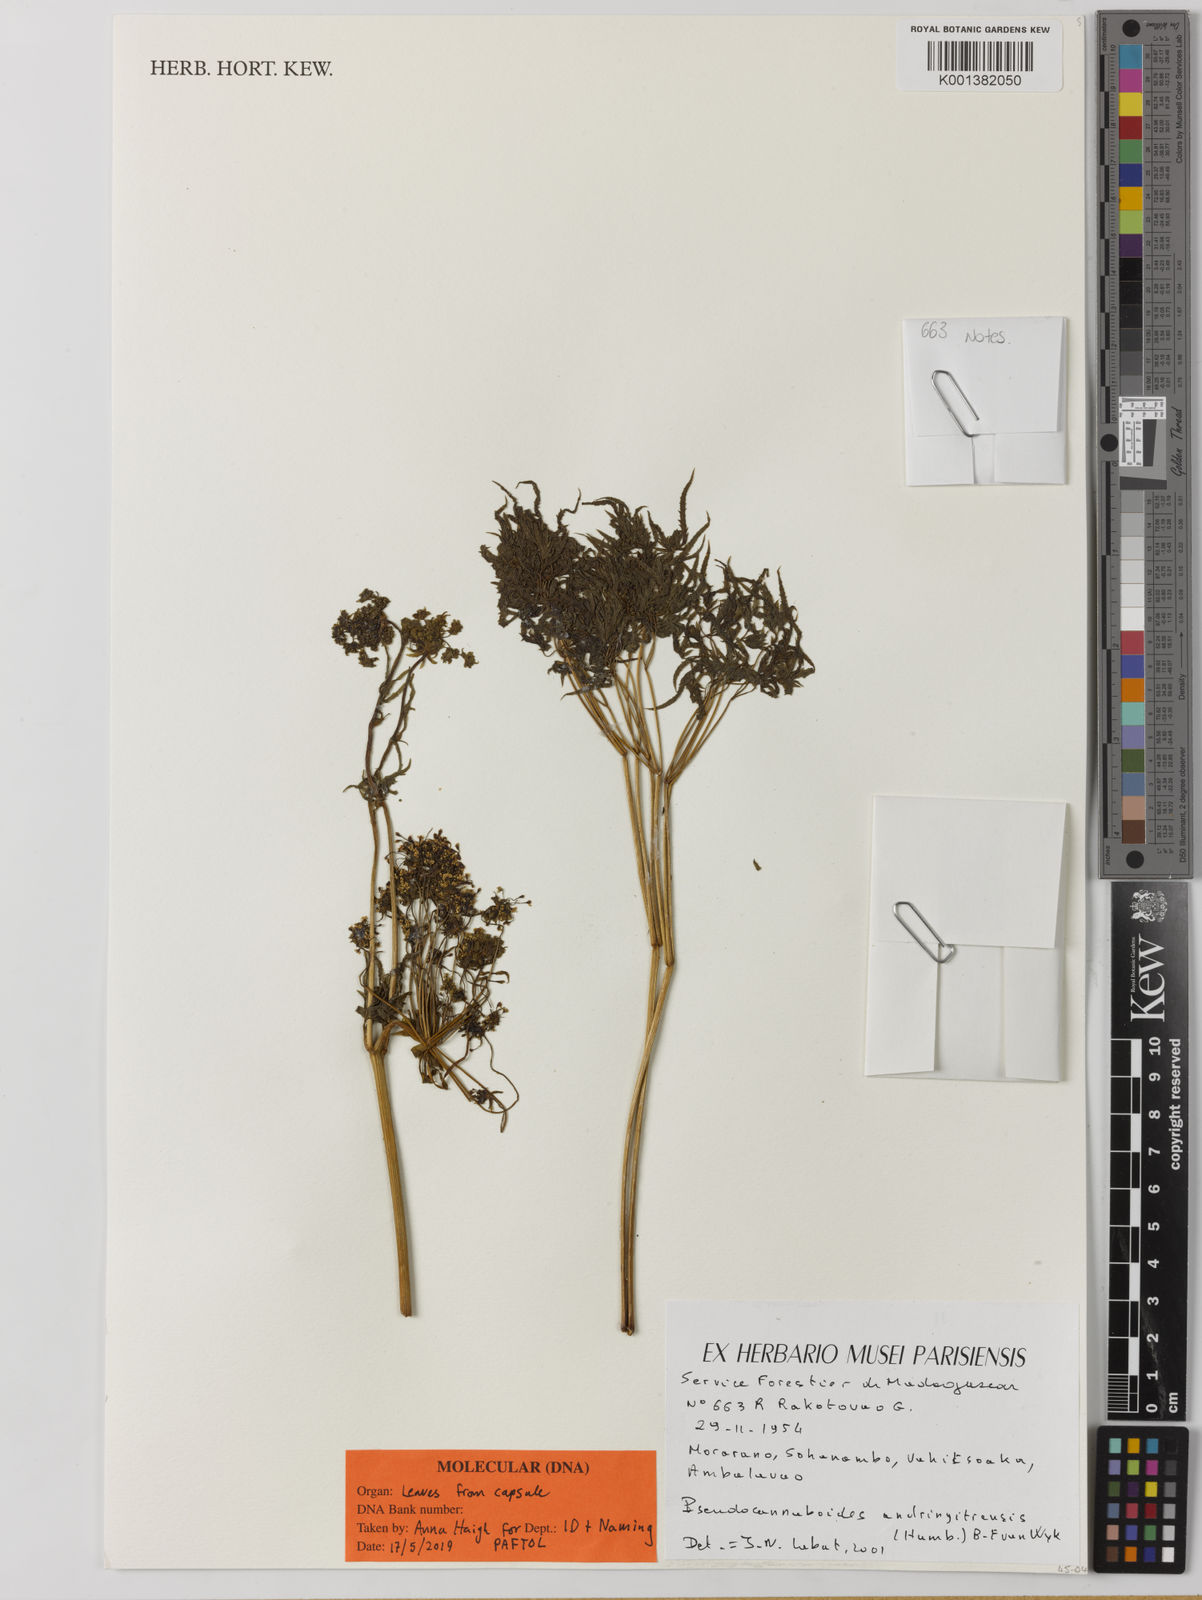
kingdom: Plantae
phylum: Tracheophyta
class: Magnoliopsida
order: Apiales
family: Apiaceae
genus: Pseudocannaboides
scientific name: Pseudocannaboides andringitrensis
